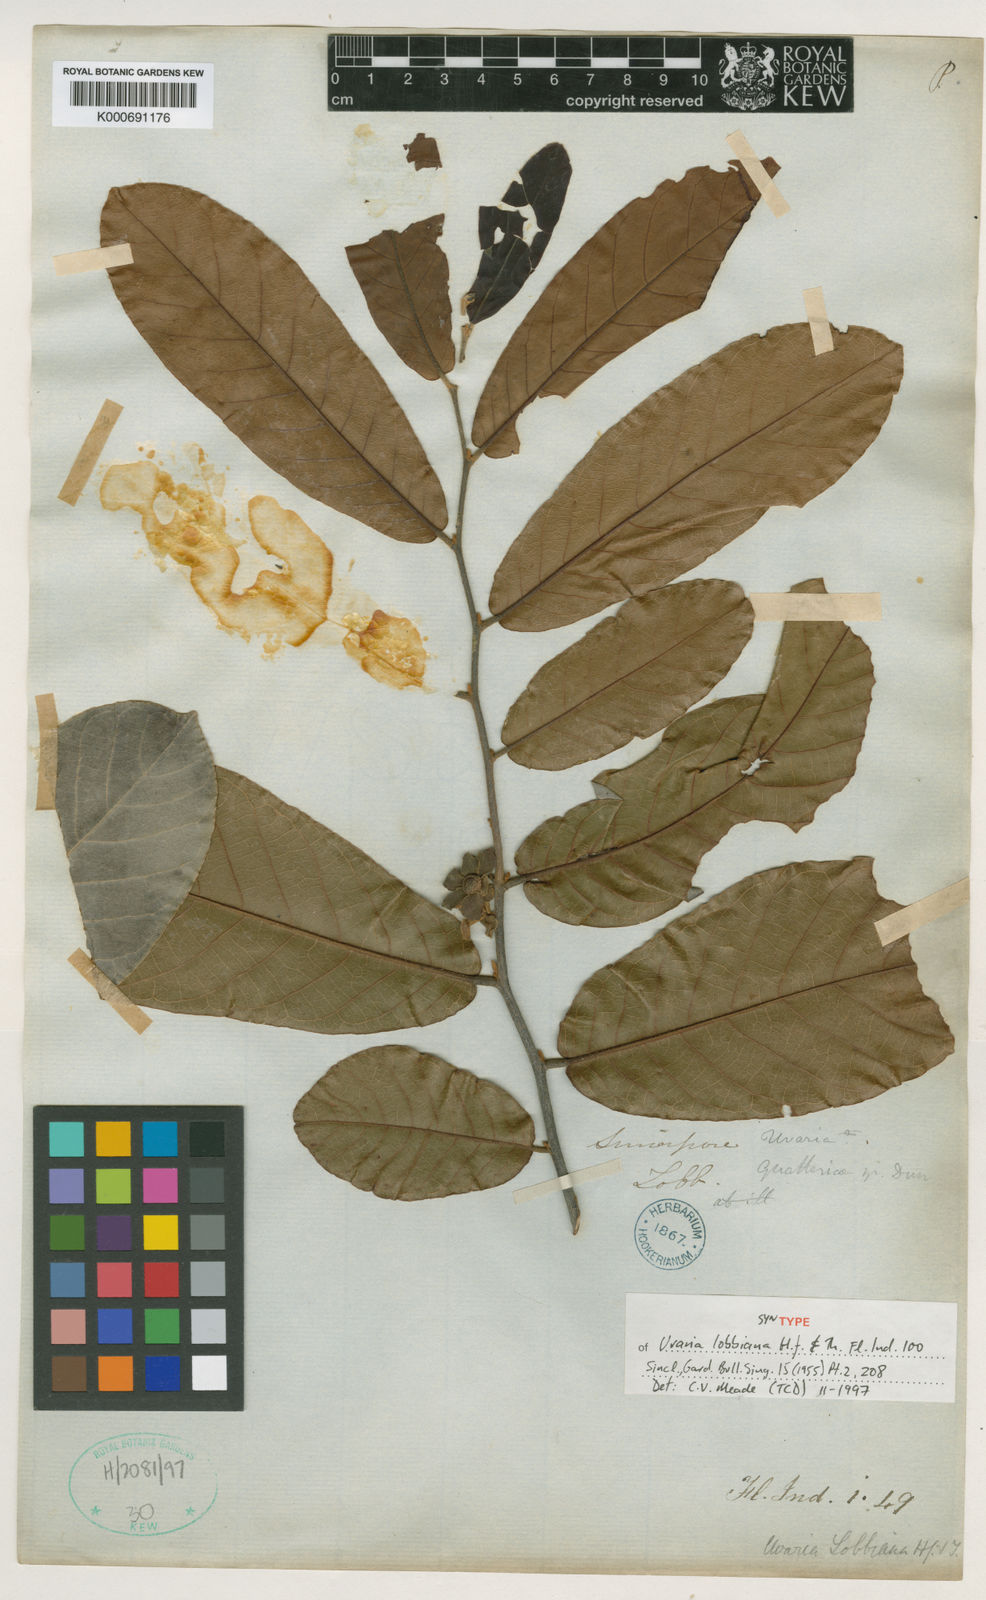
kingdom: Plantae
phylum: Tracheophyta
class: Magnoliopsida
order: Magnoliales
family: Annonaceae
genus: Uvaria
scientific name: Uvaria lobbiana
